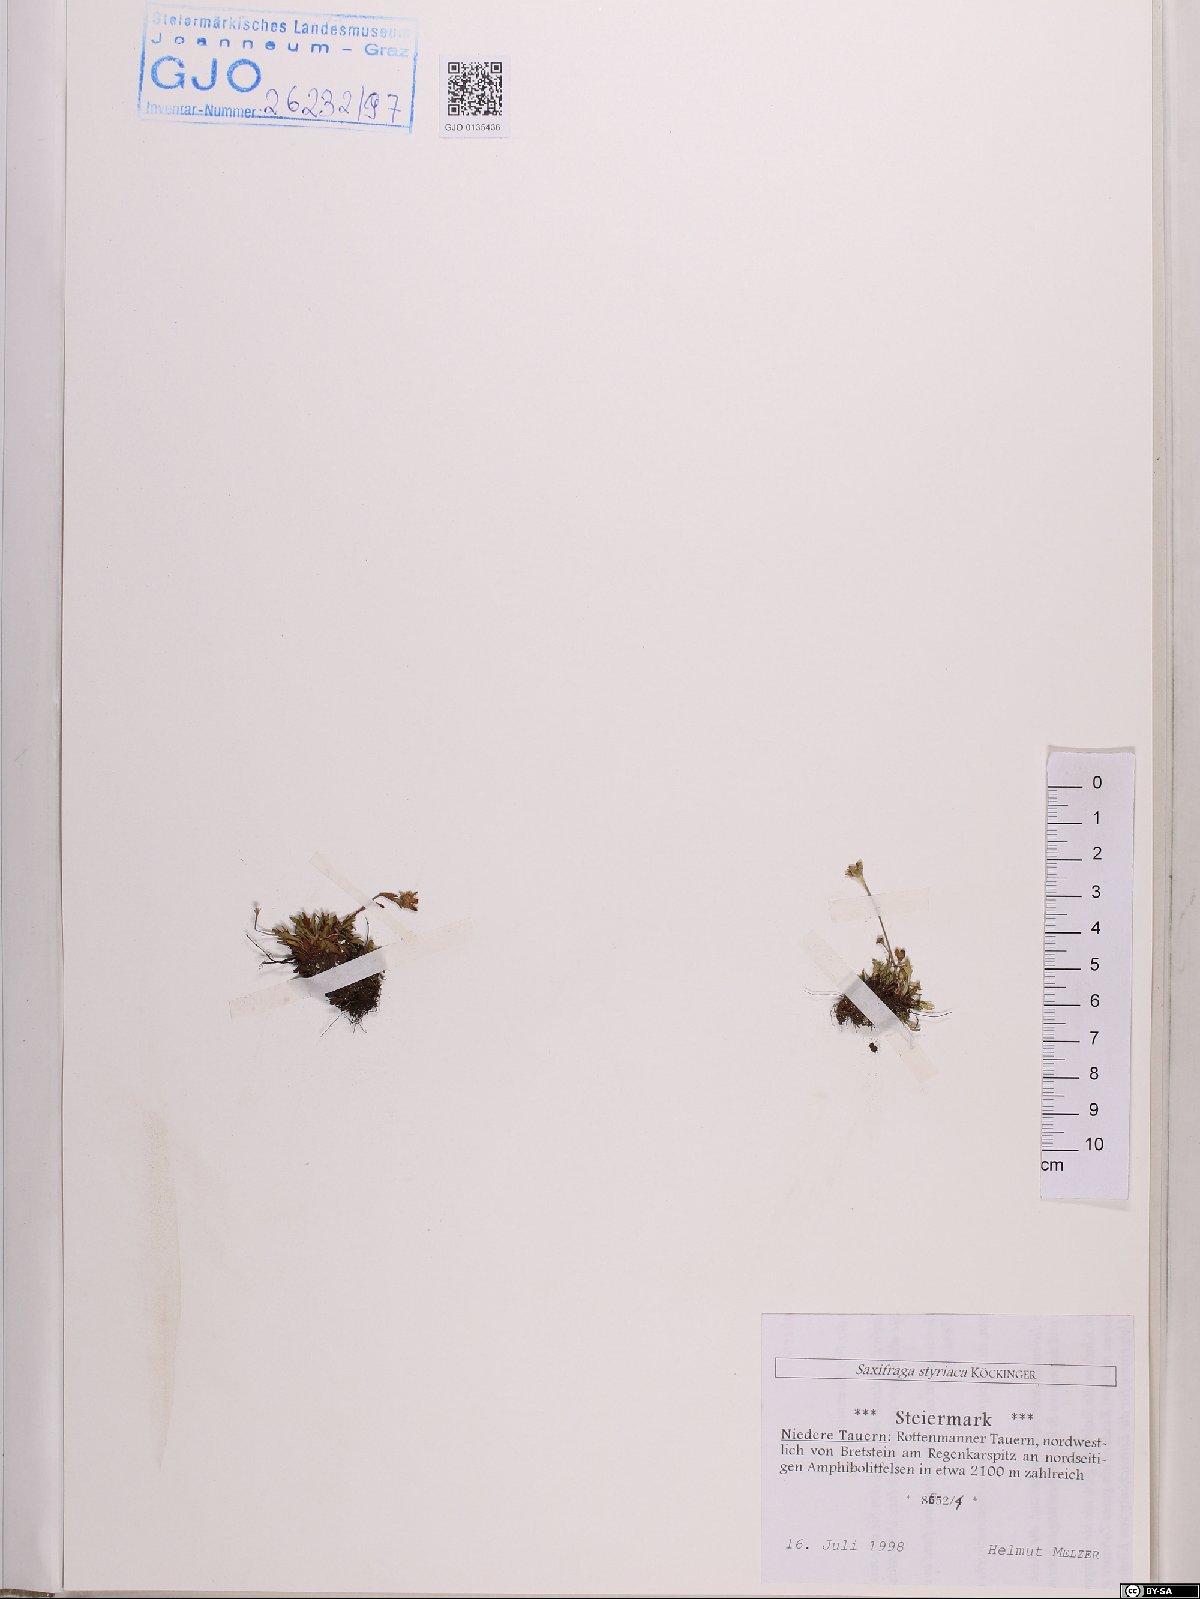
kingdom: Plantae
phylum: Tracheophyta
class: Magnoliopsida
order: Saxifragales
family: Saxifragaceae
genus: Saxifraga
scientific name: Saxifraga styriaca
